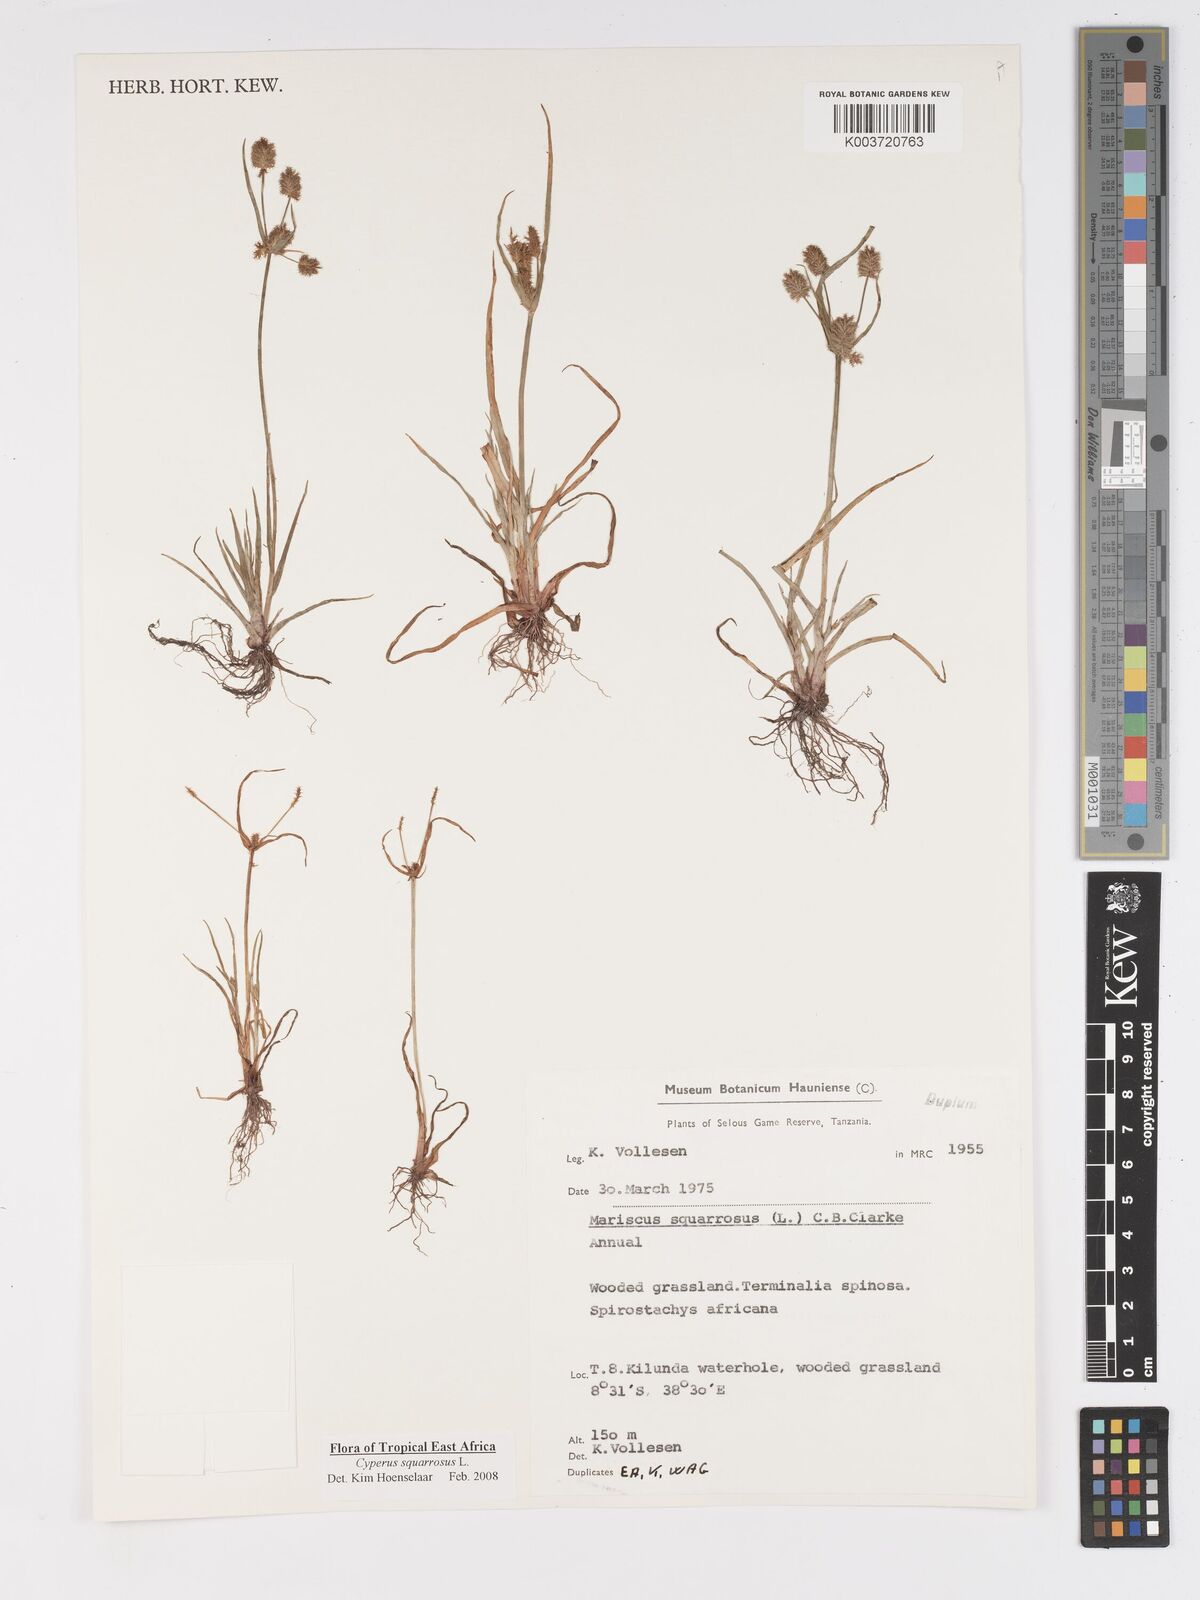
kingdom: Plantae
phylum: Tracheophyta
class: Liliopsida
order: Poales
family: Cyperaceae
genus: Cyperus
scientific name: Cyperus squarrosus
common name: Awned cyperus
